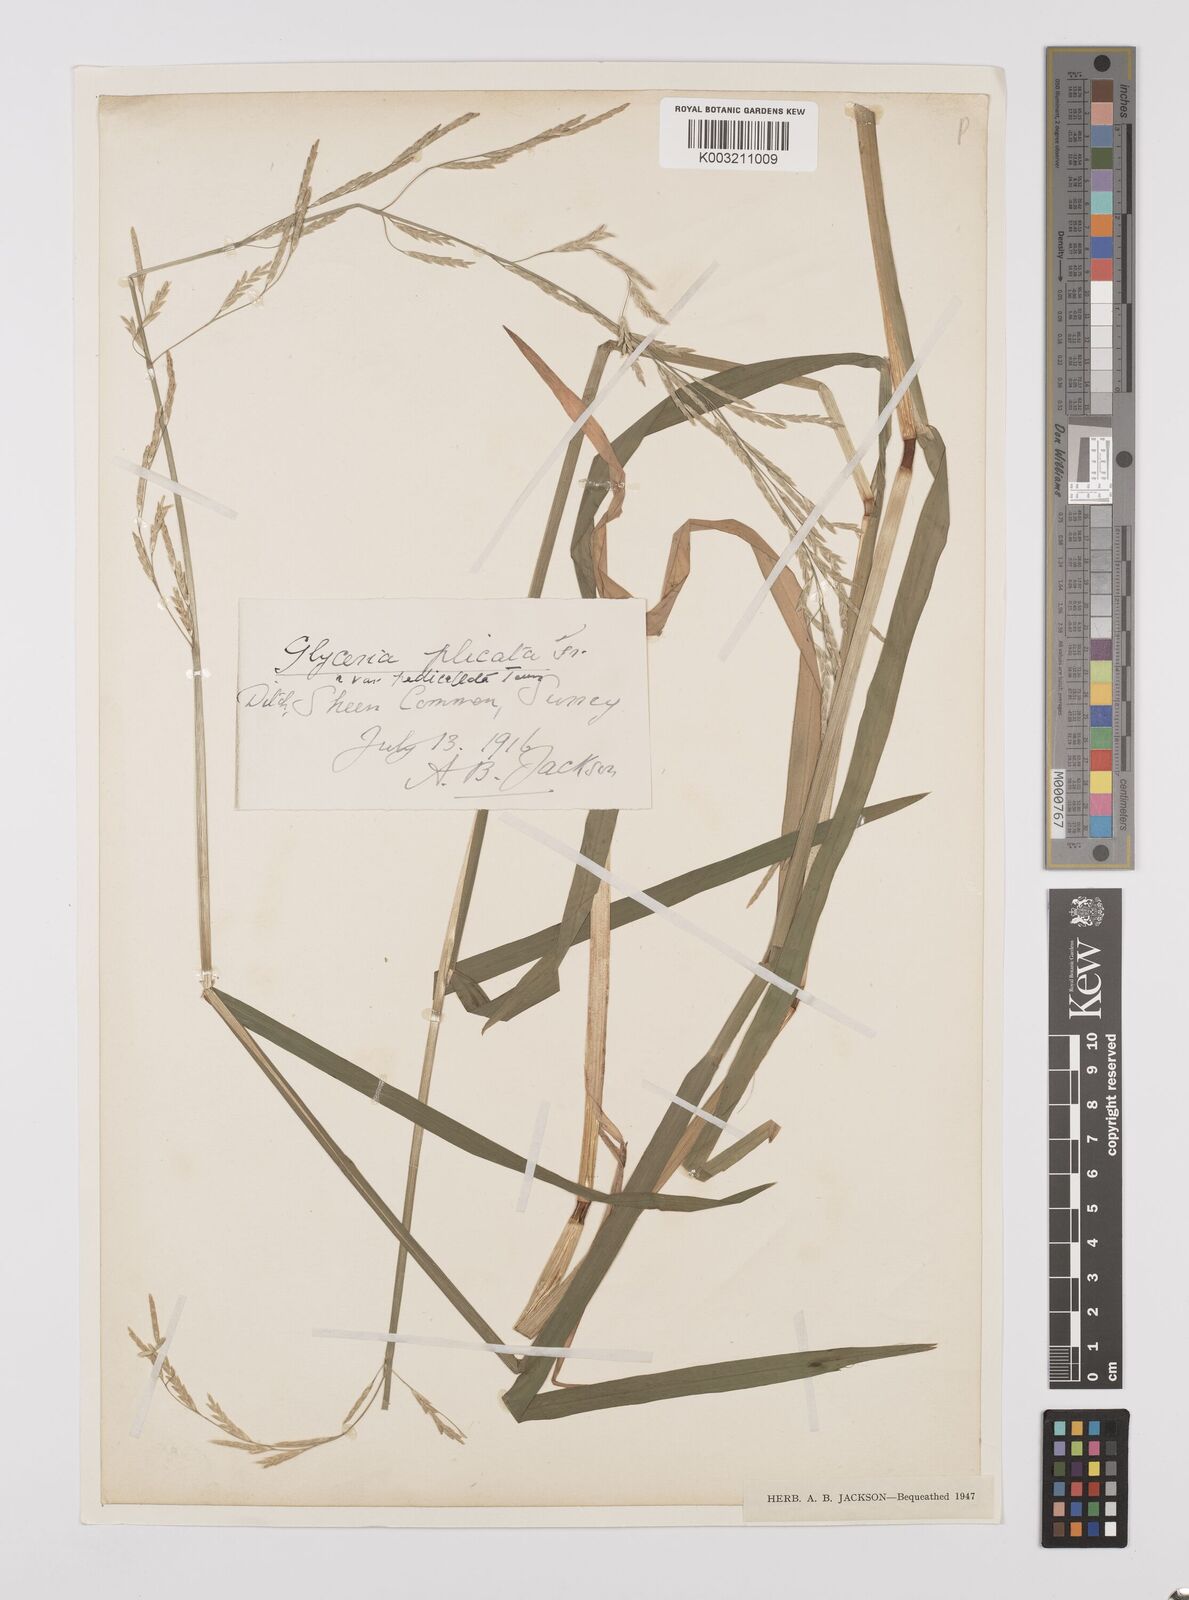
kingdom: Plantae
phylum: Tracheophyta
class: Liliopsida
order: Poales
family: Poaceae
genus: Glyceria
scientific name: Glyceria notata
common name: Plicate sweet-grass
